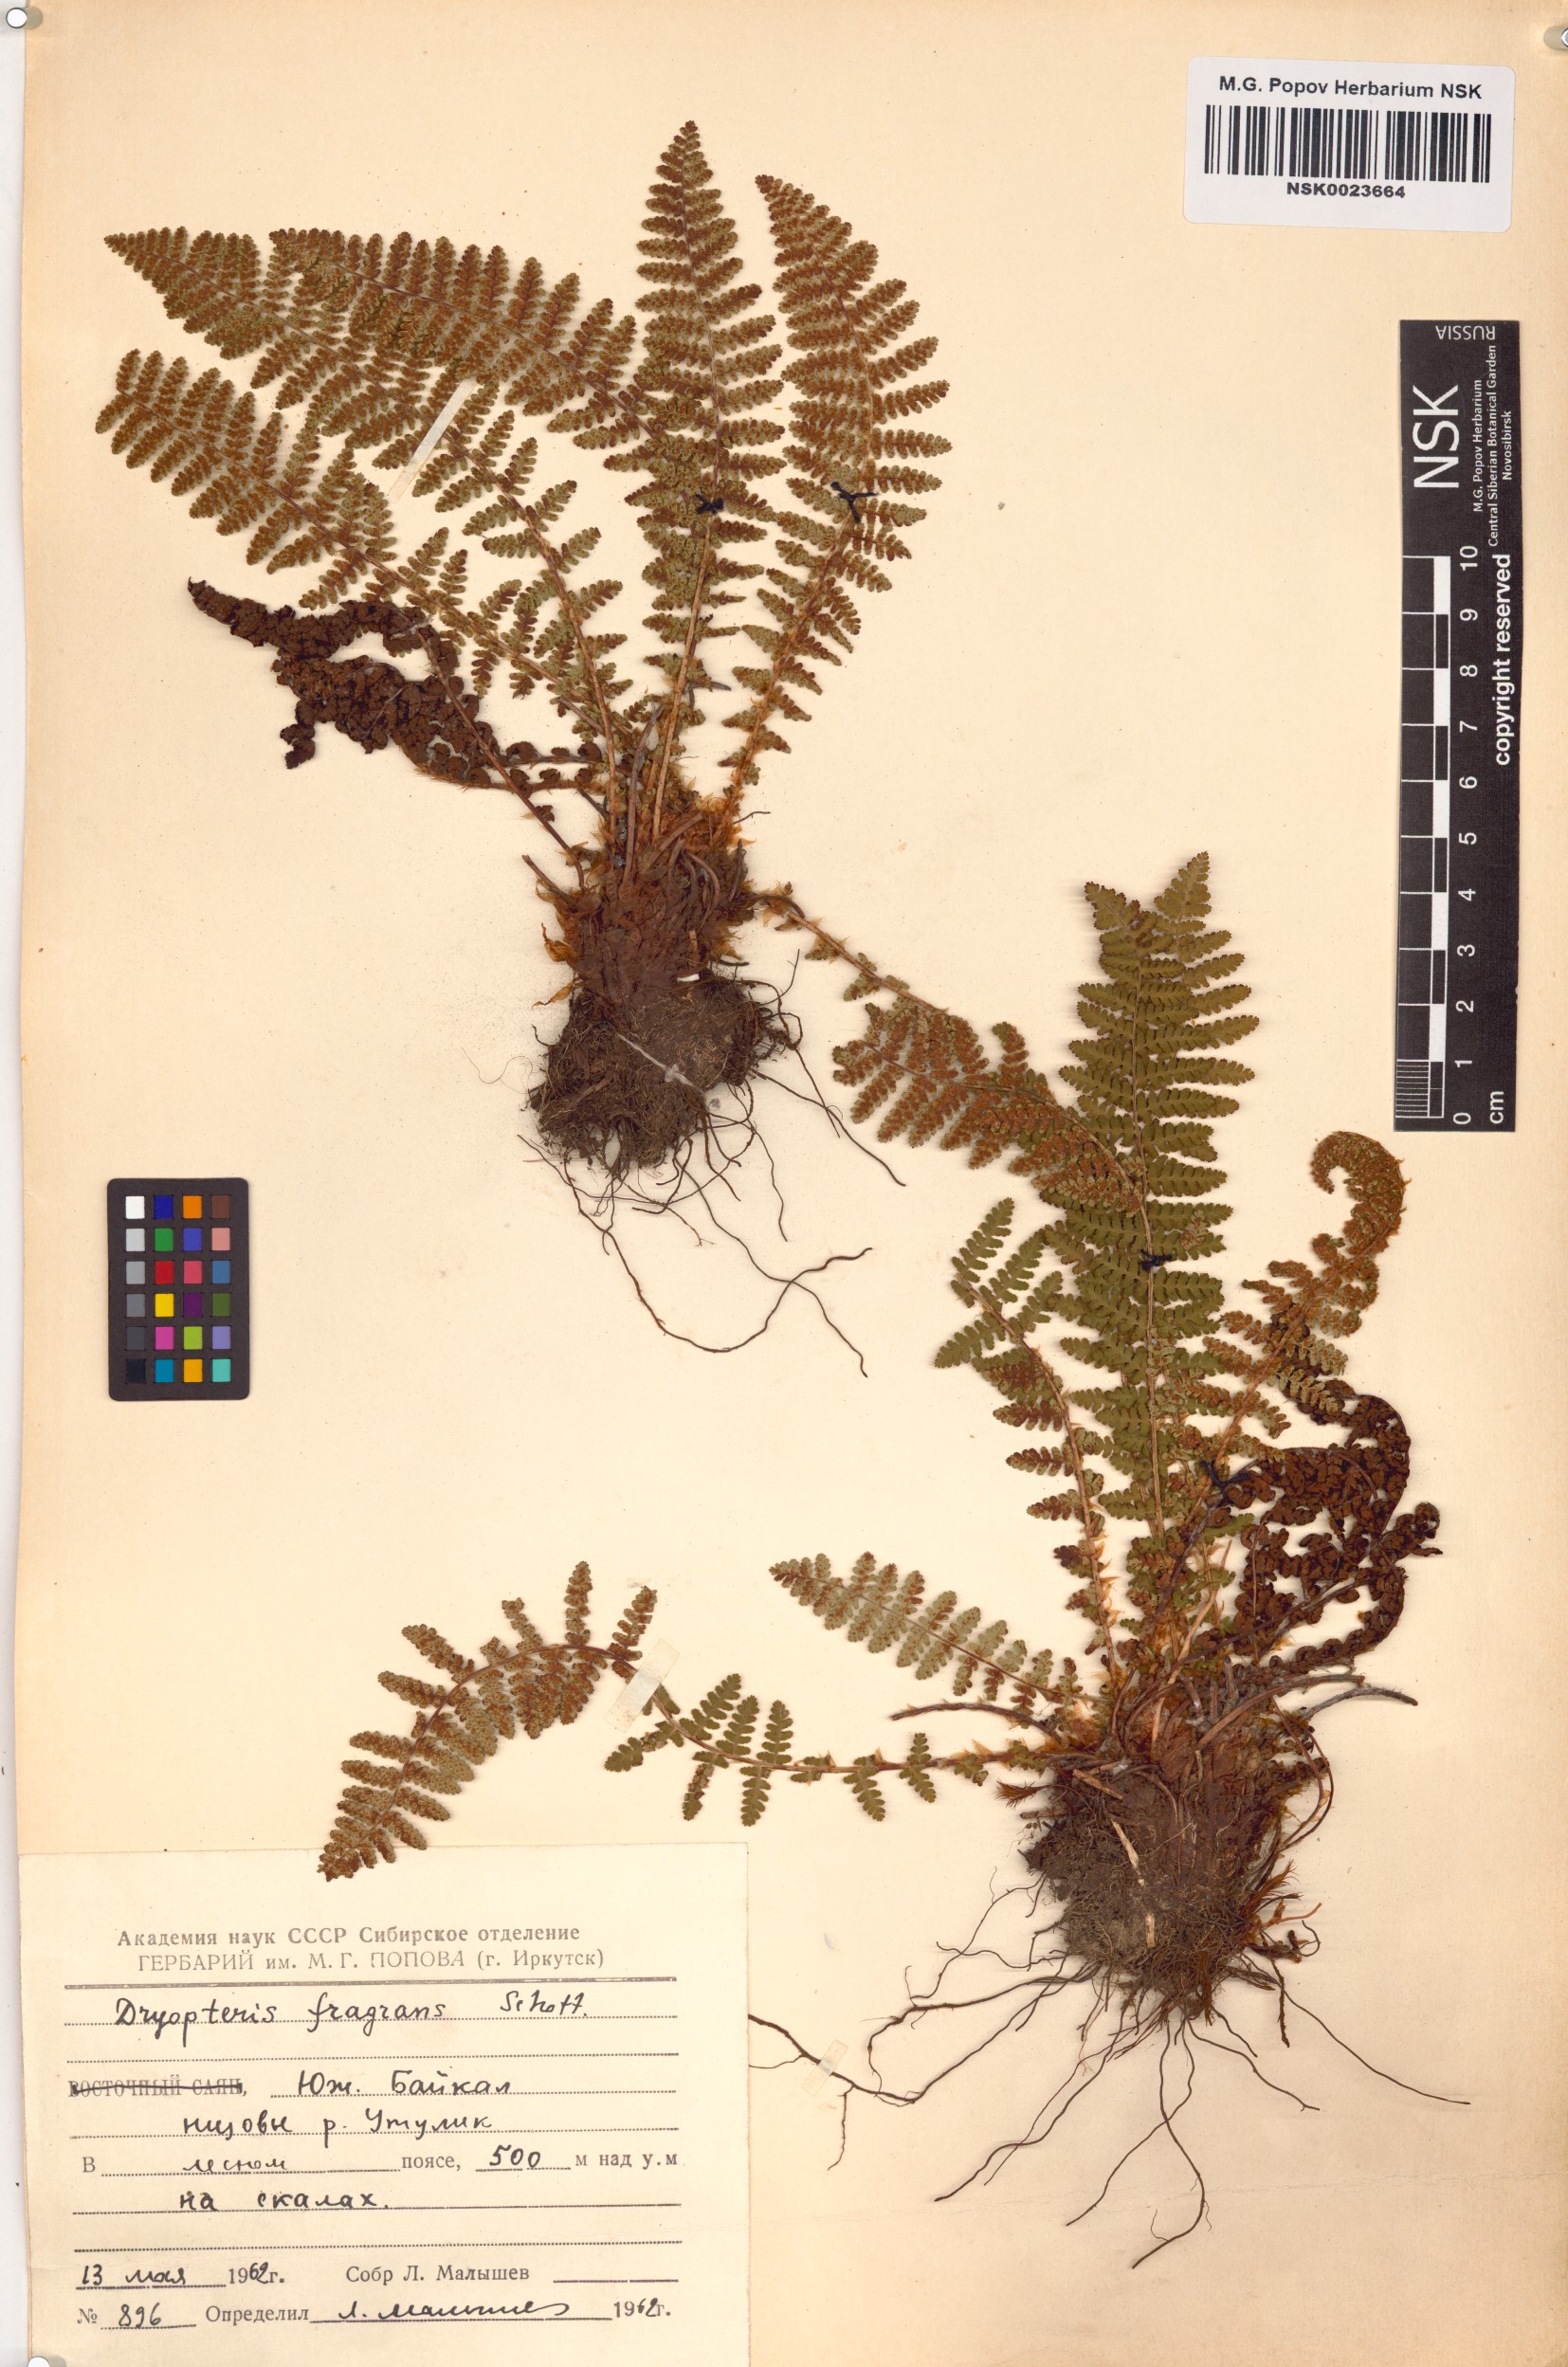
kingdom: Plantae
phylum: Tracheophyta
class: Polypodiopsida
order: Polypodiales
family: Dryopteridaceae
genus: Dryopteris
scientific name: Dryopteris fragrans
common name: Fragrant wood fern
